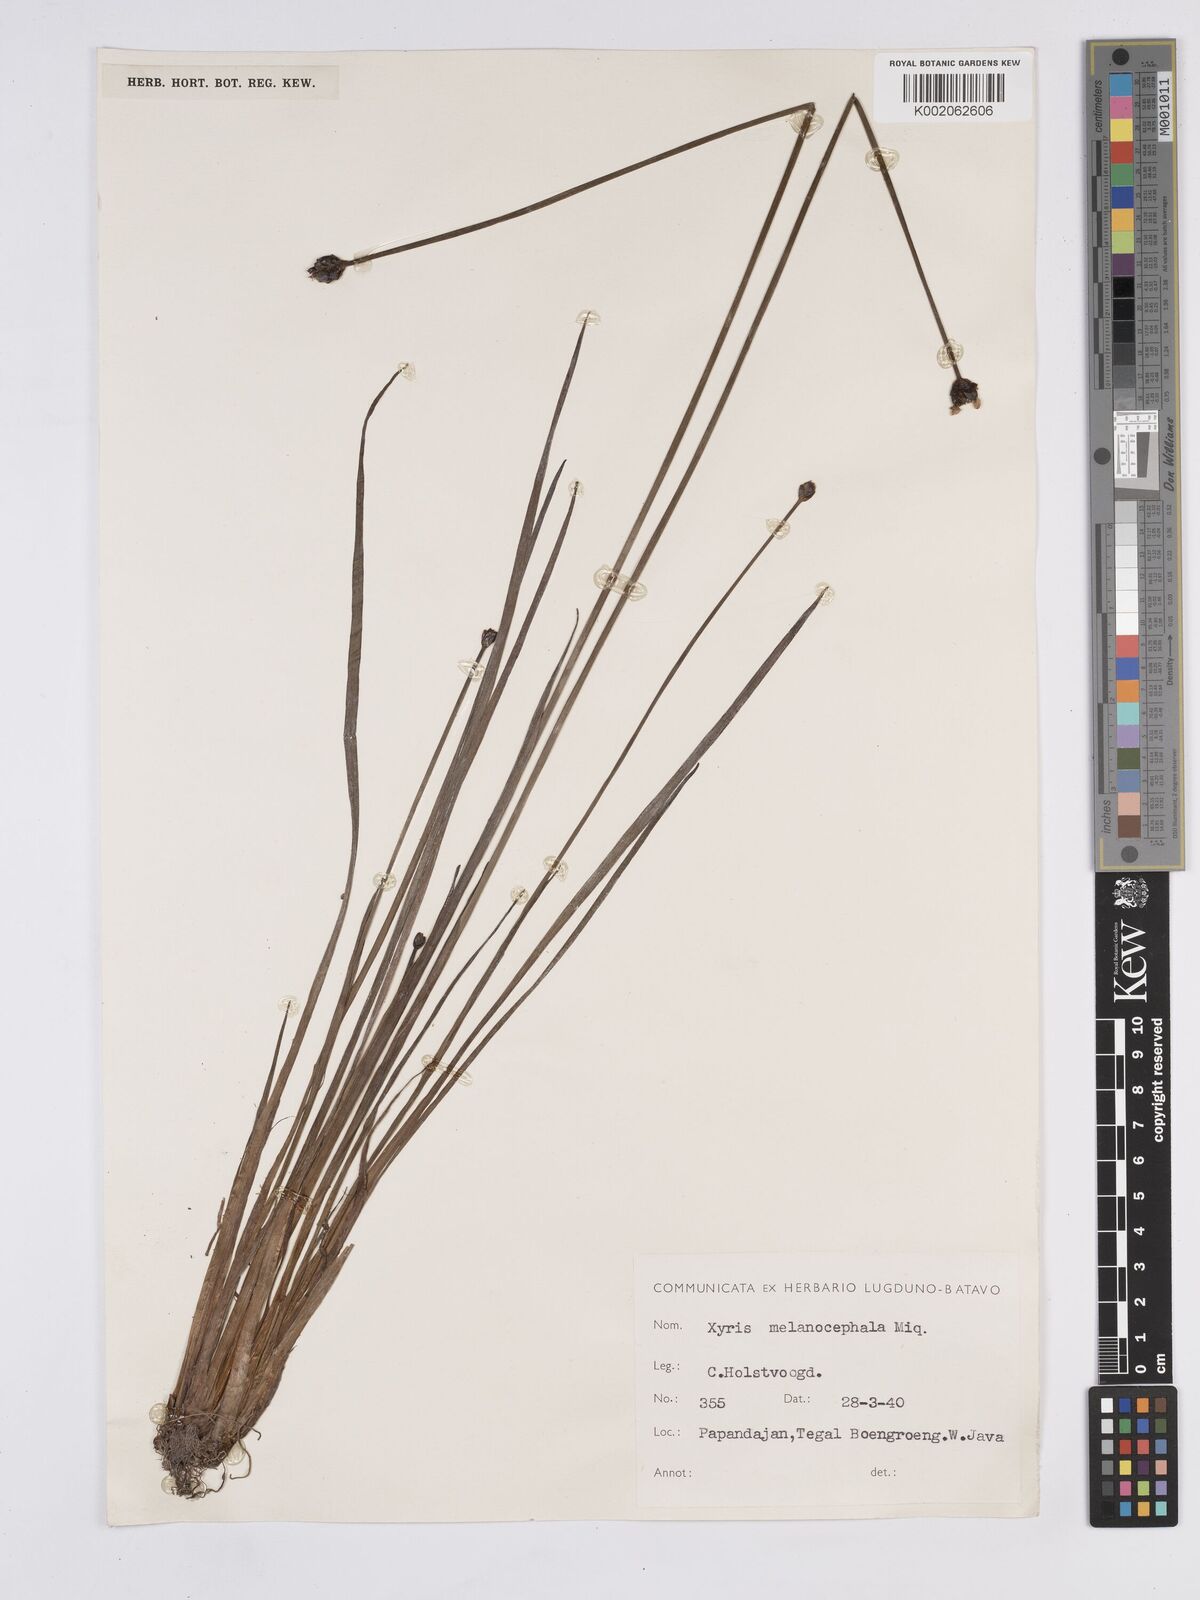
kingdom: Plantae
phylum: Tracheophyta
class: Liliopsida
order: Poales
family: Xyridaceae
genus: Xyris
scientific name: Xyris capensis
